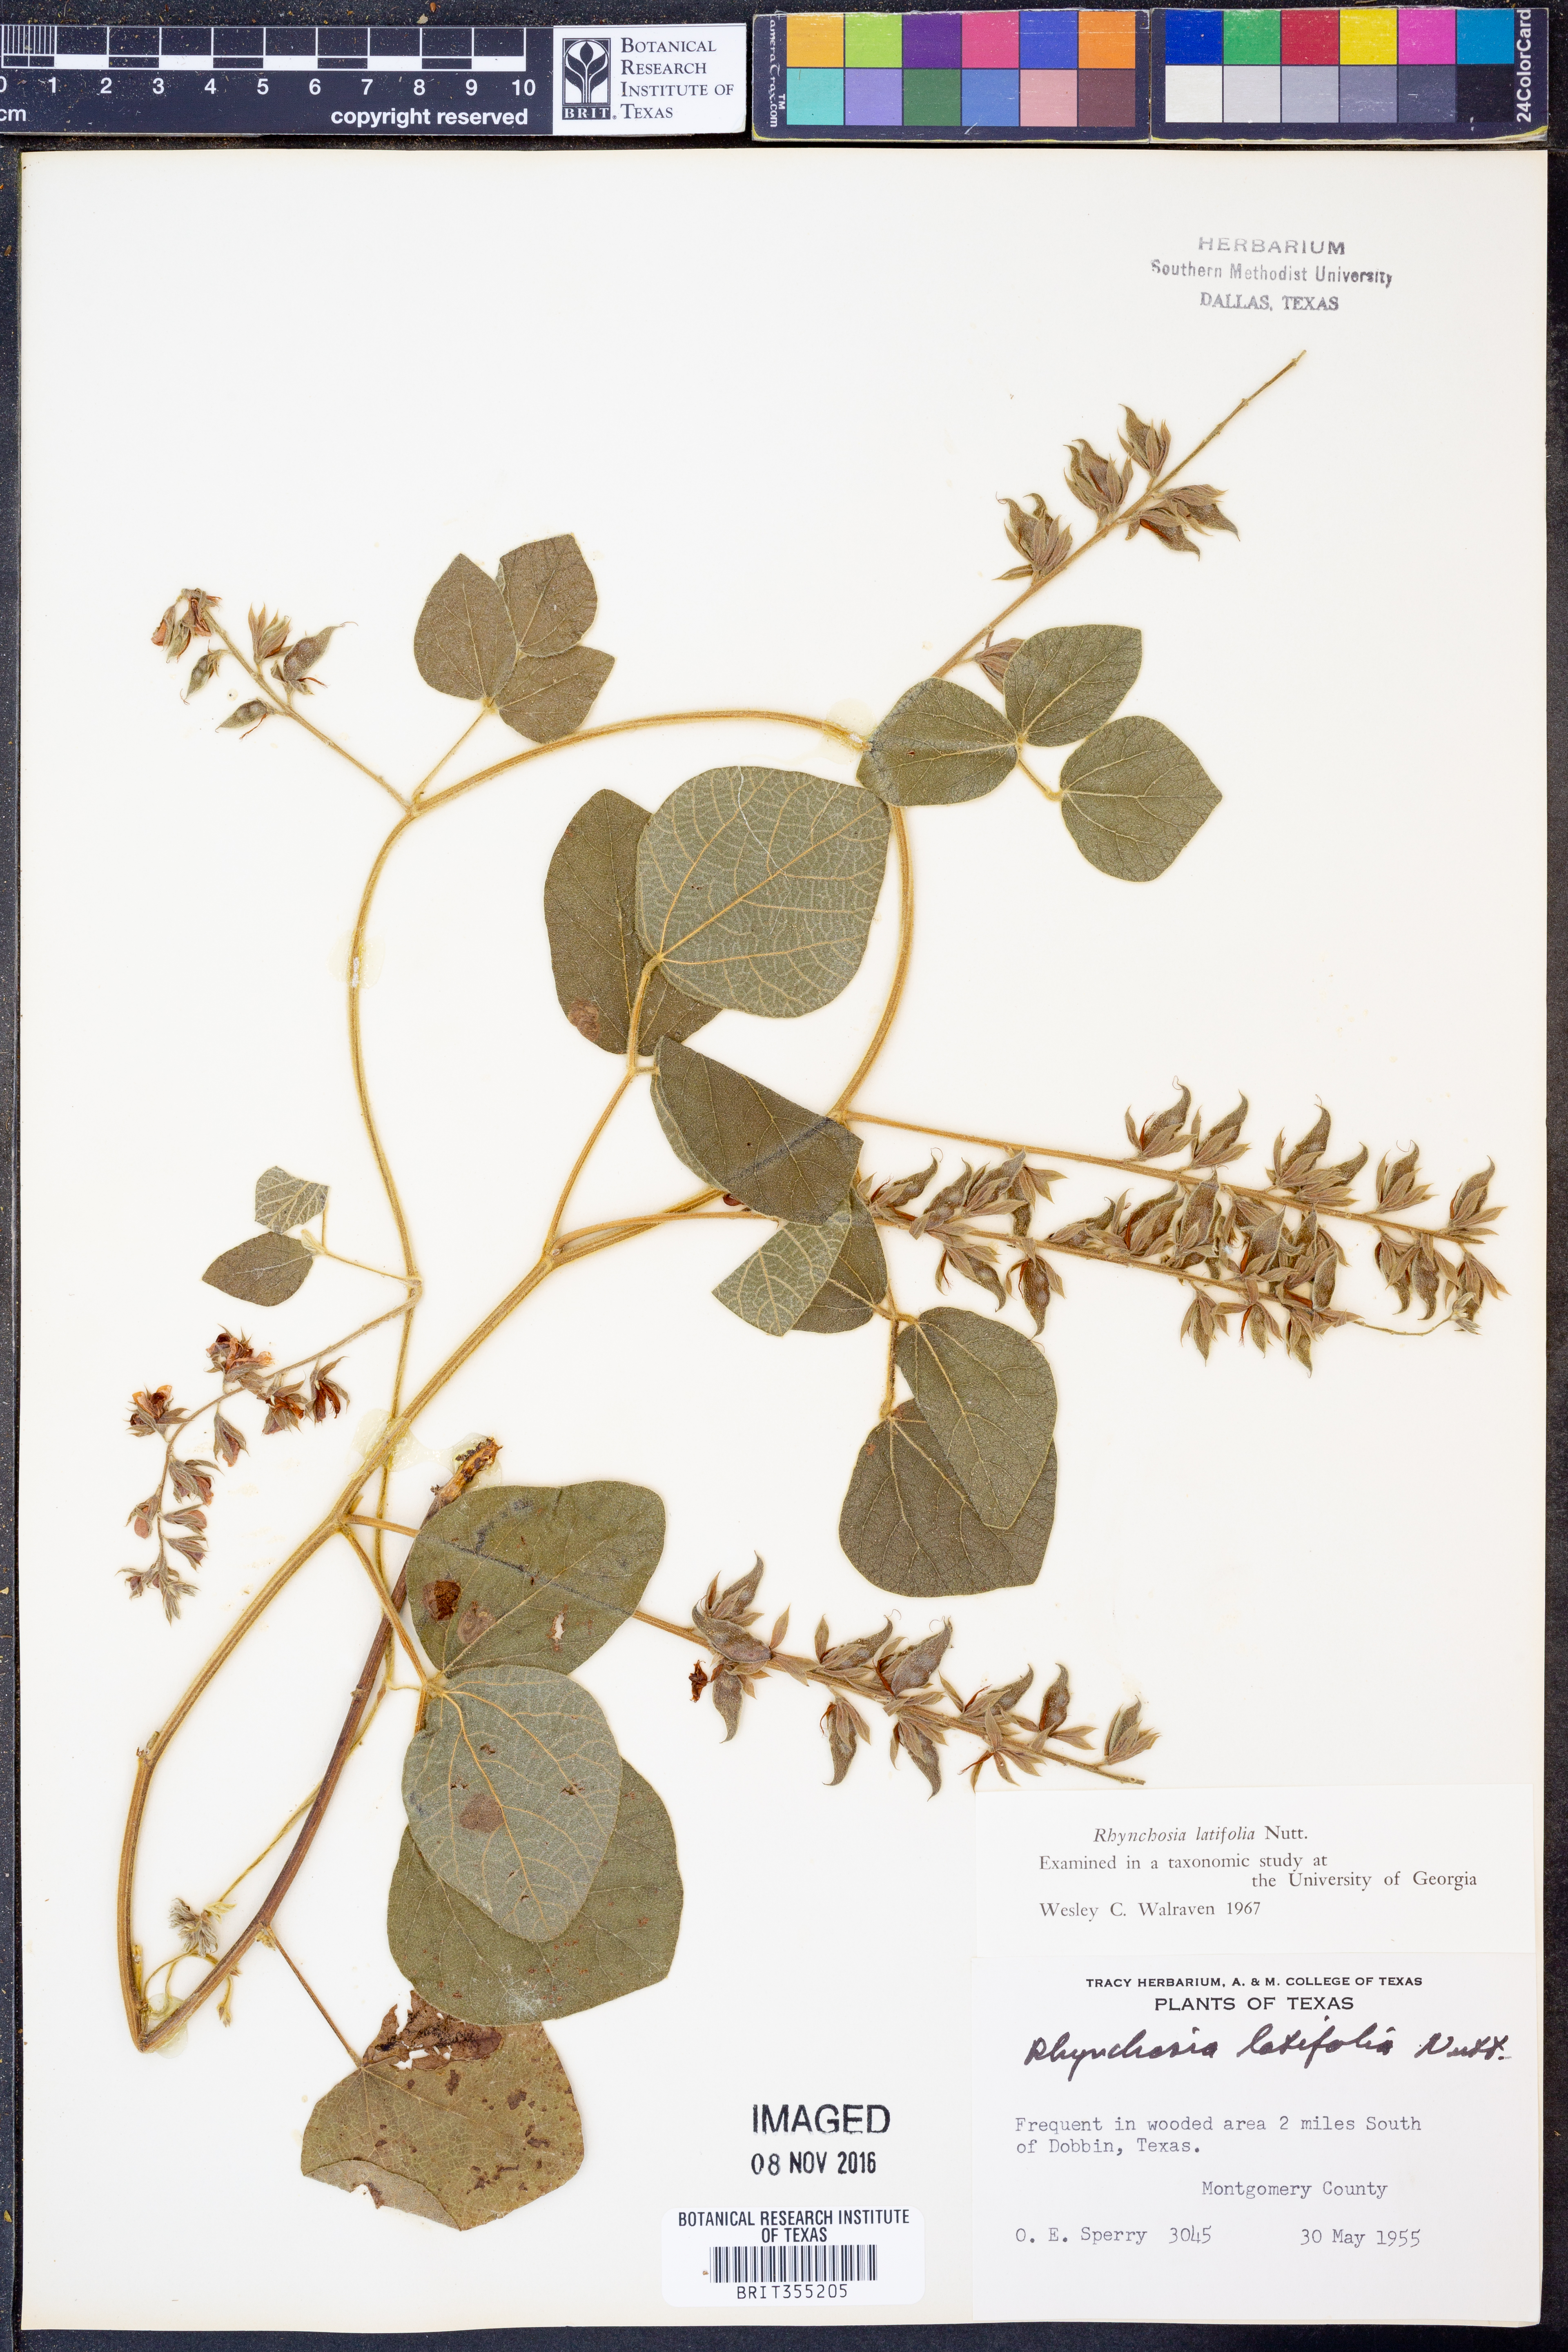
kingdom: Plantae
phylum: Tracheophyta
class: Magnoliopsida
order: Fabales
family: Fabaceae
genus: Rhynchosia
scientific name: Rhynchosia latifolia
